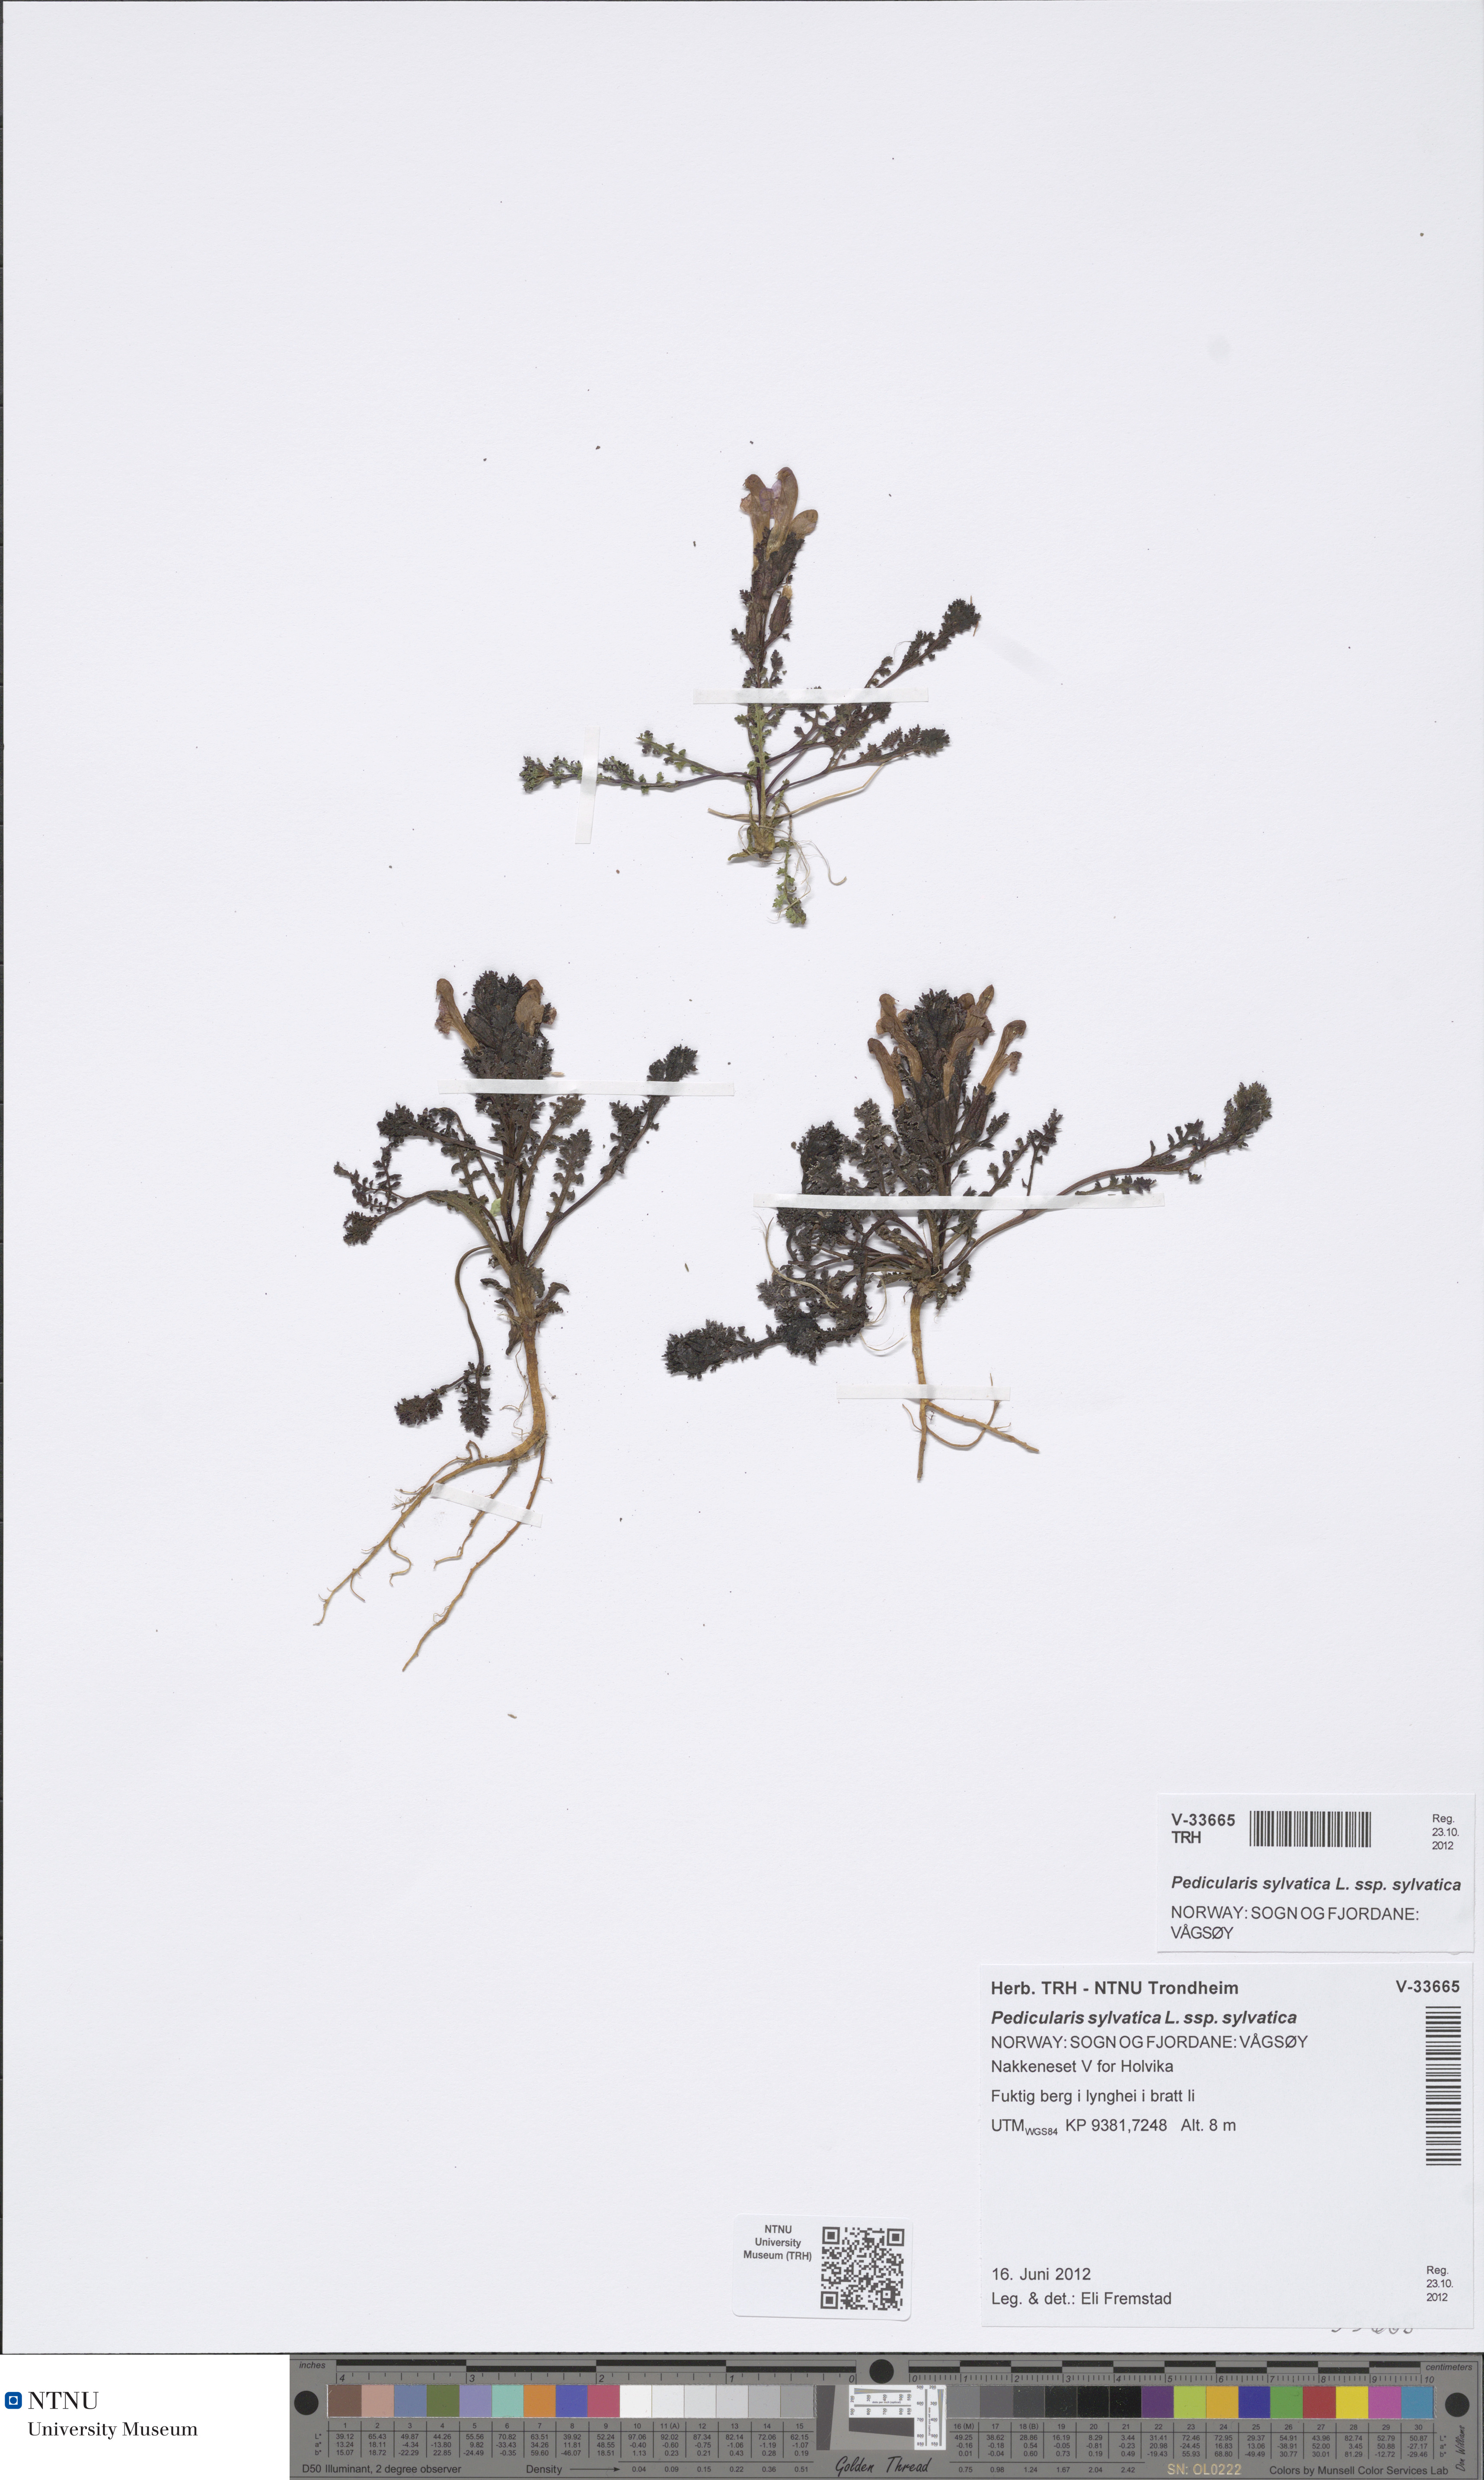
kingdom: Plantae
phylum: Tracheophyta
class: Magnoliopsida
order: Lamiales
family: Orobanchaceae
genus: Pedicularis
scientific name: Pedicularis sylvatica
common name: Lousewort
